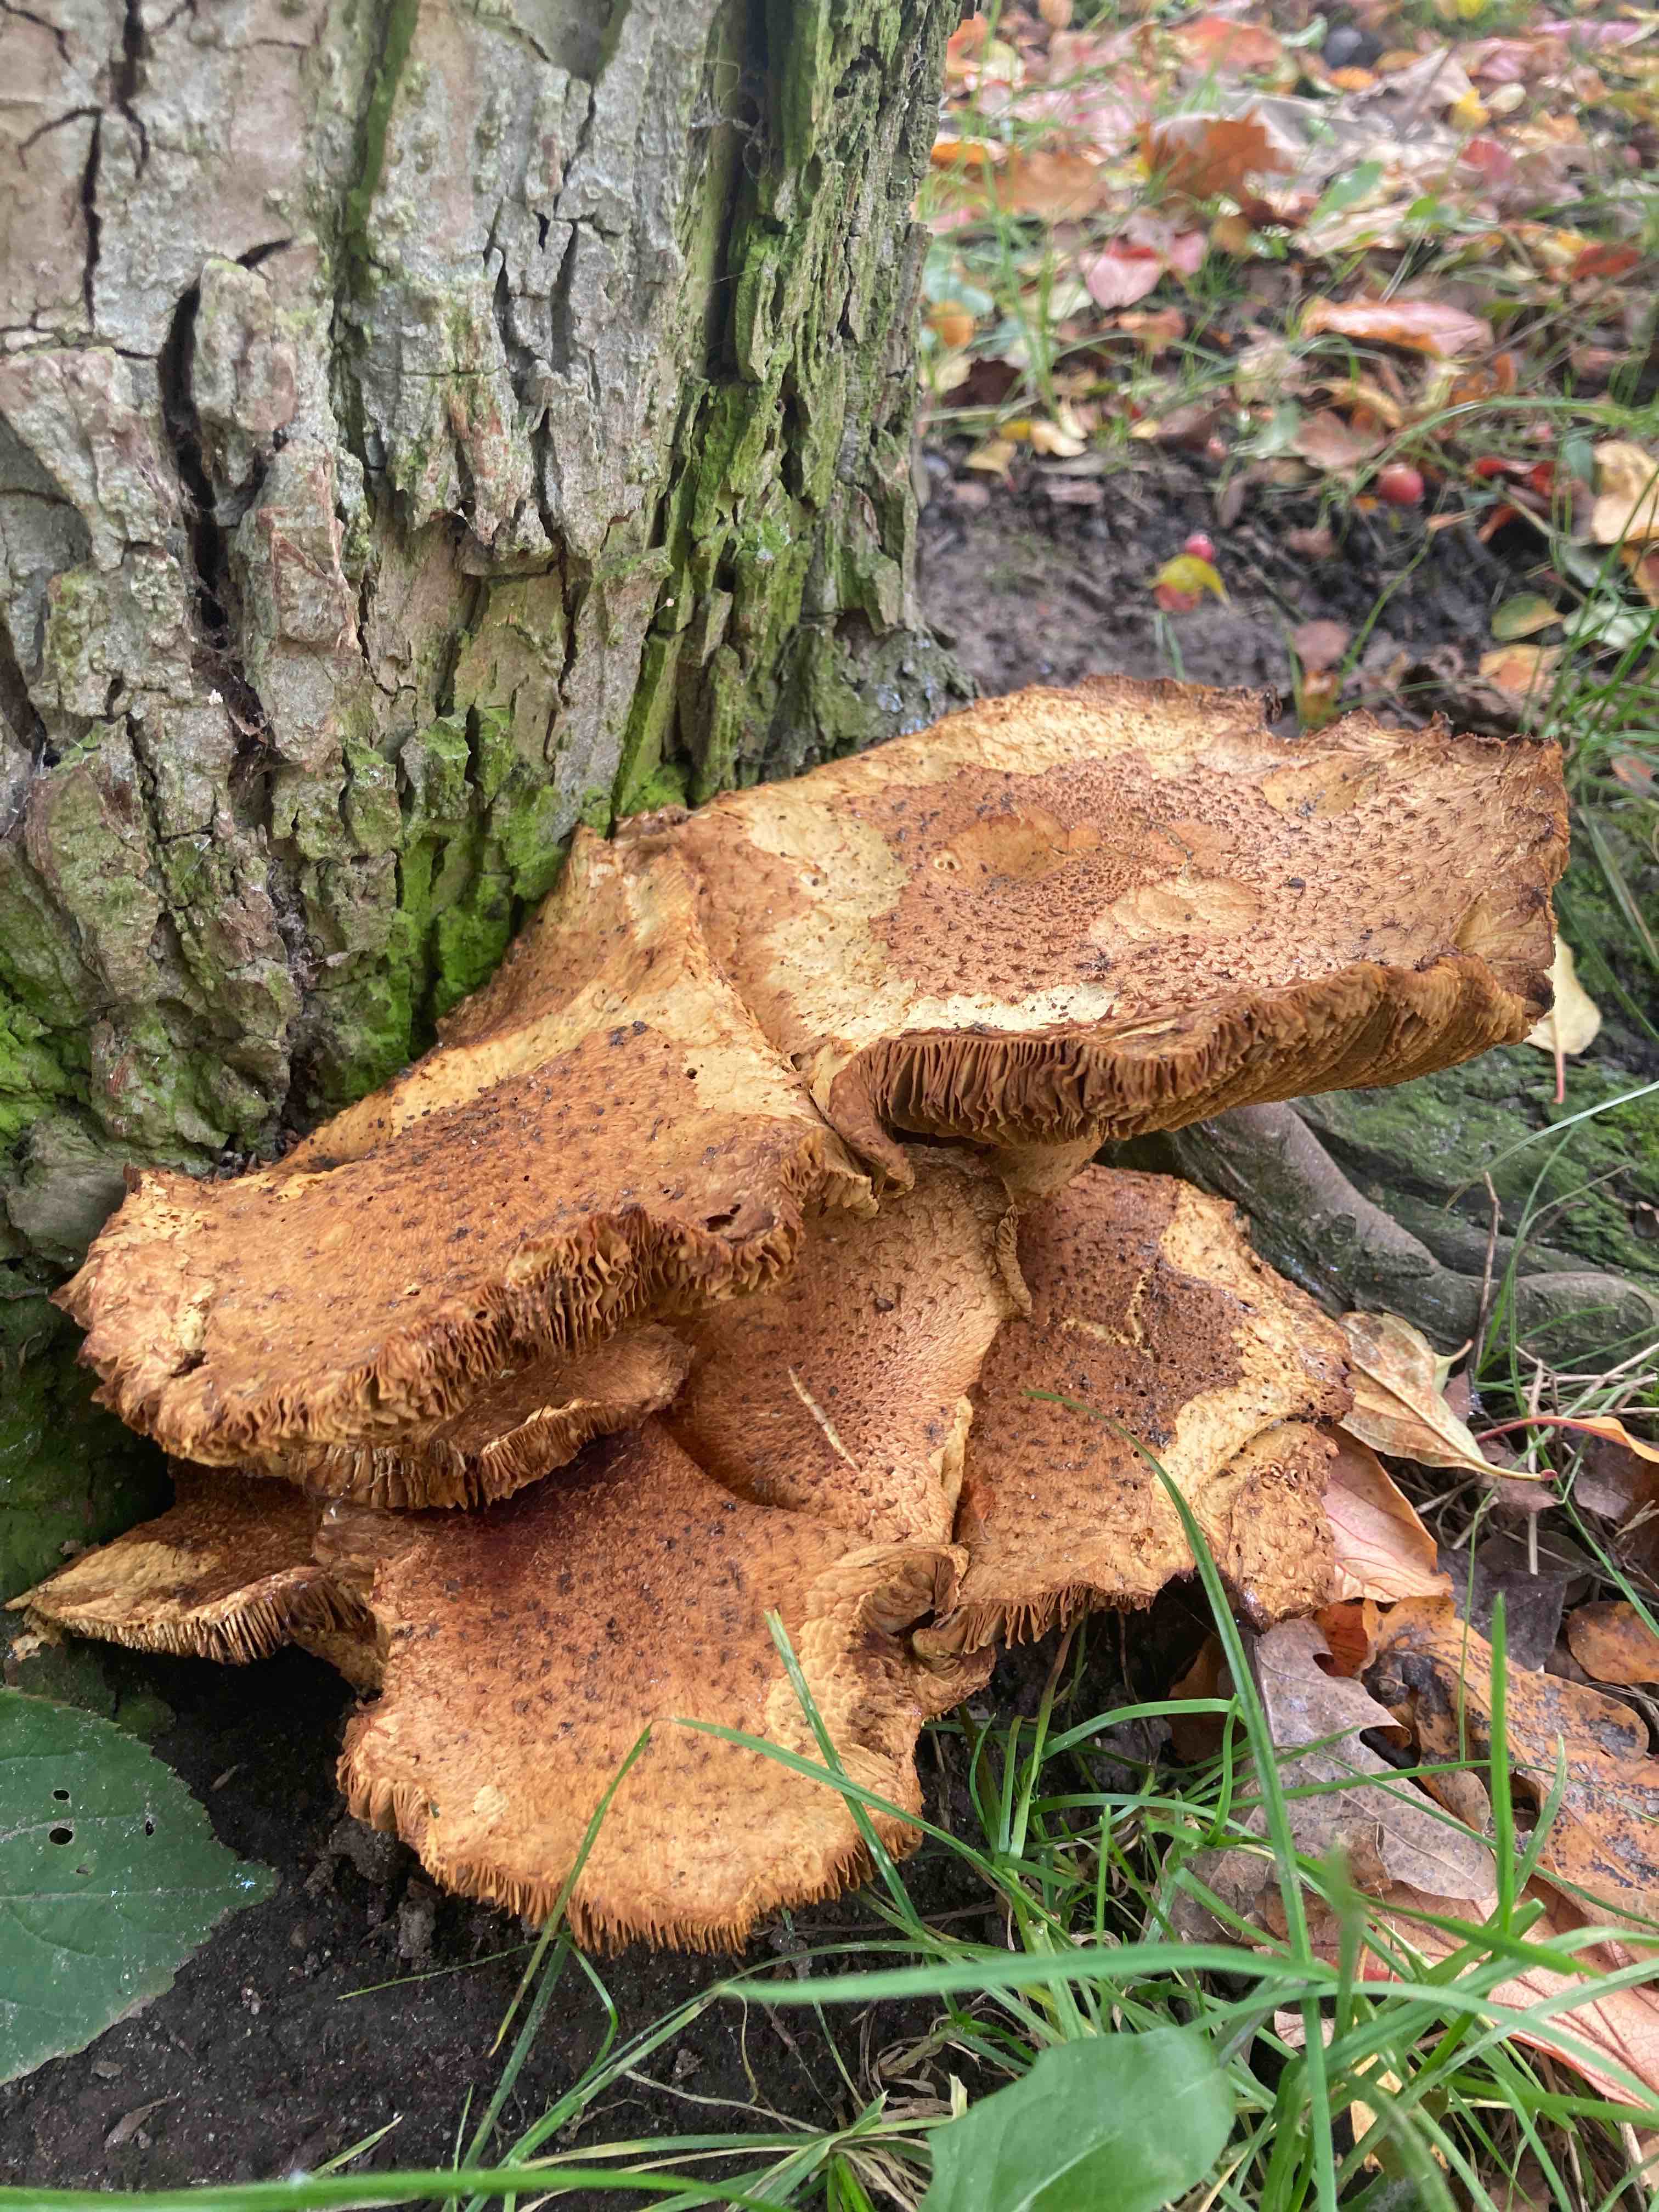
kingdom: Fungi
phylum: Basidiomycota
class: Agaricomycetes
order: Agaricales
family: Strophariaceae
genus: Pholiota
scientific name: Pholiota squarrosa
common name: krumskællet skælhat
